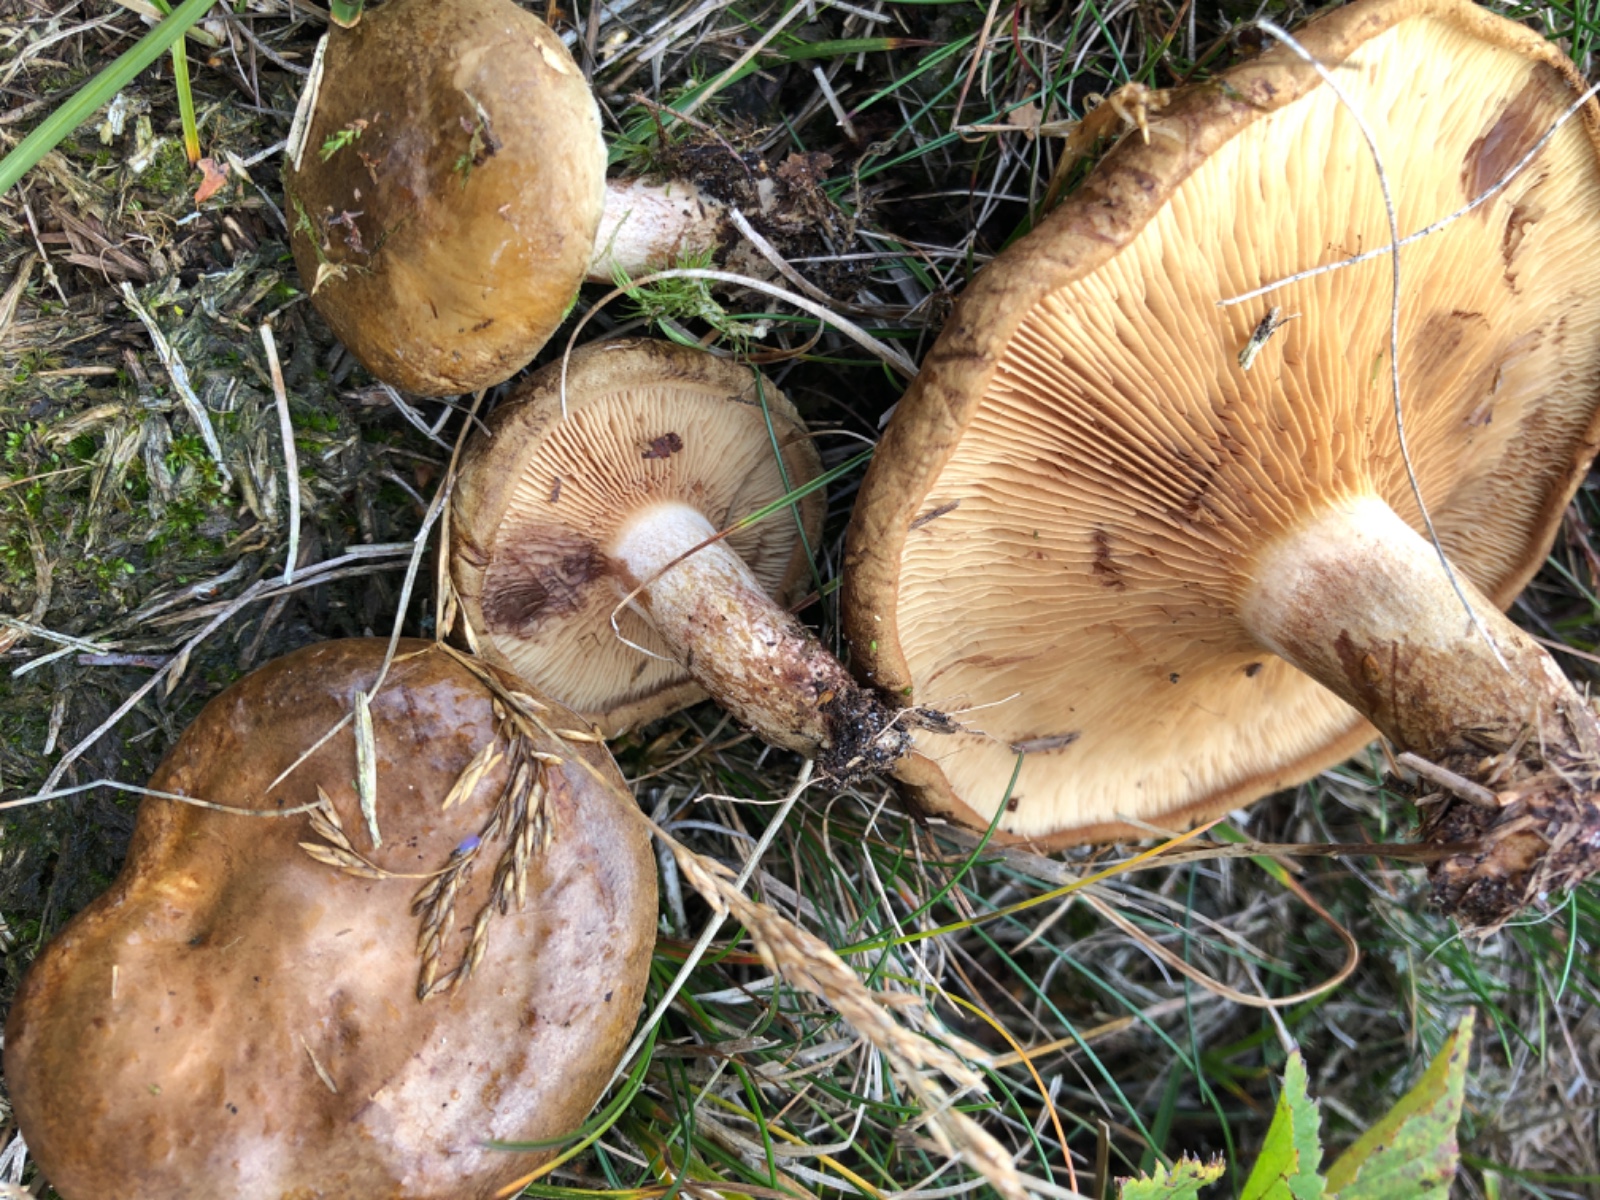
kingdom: Fungi
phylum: Basidiomycota
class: Agaricomycetes
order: Boletales
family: Paxillaceae
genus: Paxillus
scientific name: Paxillus involutus
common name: almindelig netbladhat
